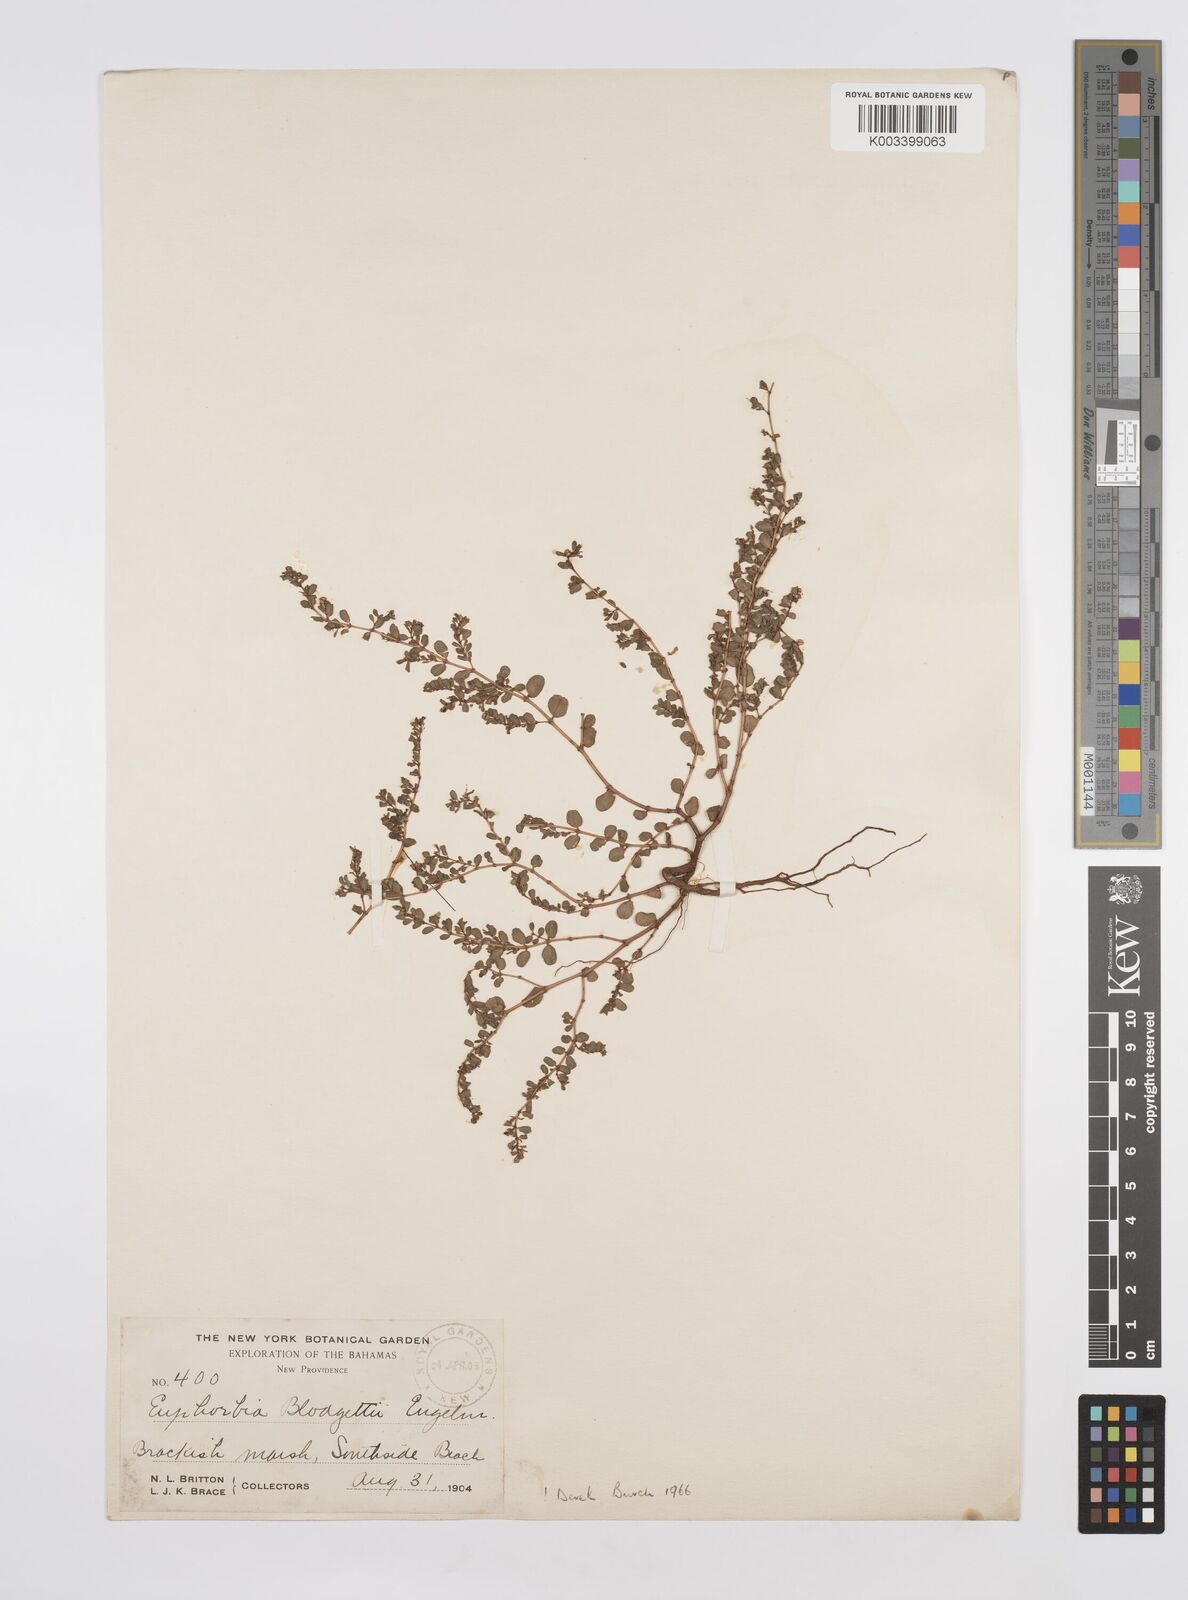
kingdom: Plantae
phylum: Tracheophyta
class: Magnoliopsida
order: Malpighiales
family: Euphorbiaceae
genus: Euphorbia
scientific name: Euphorbia blodgettii
